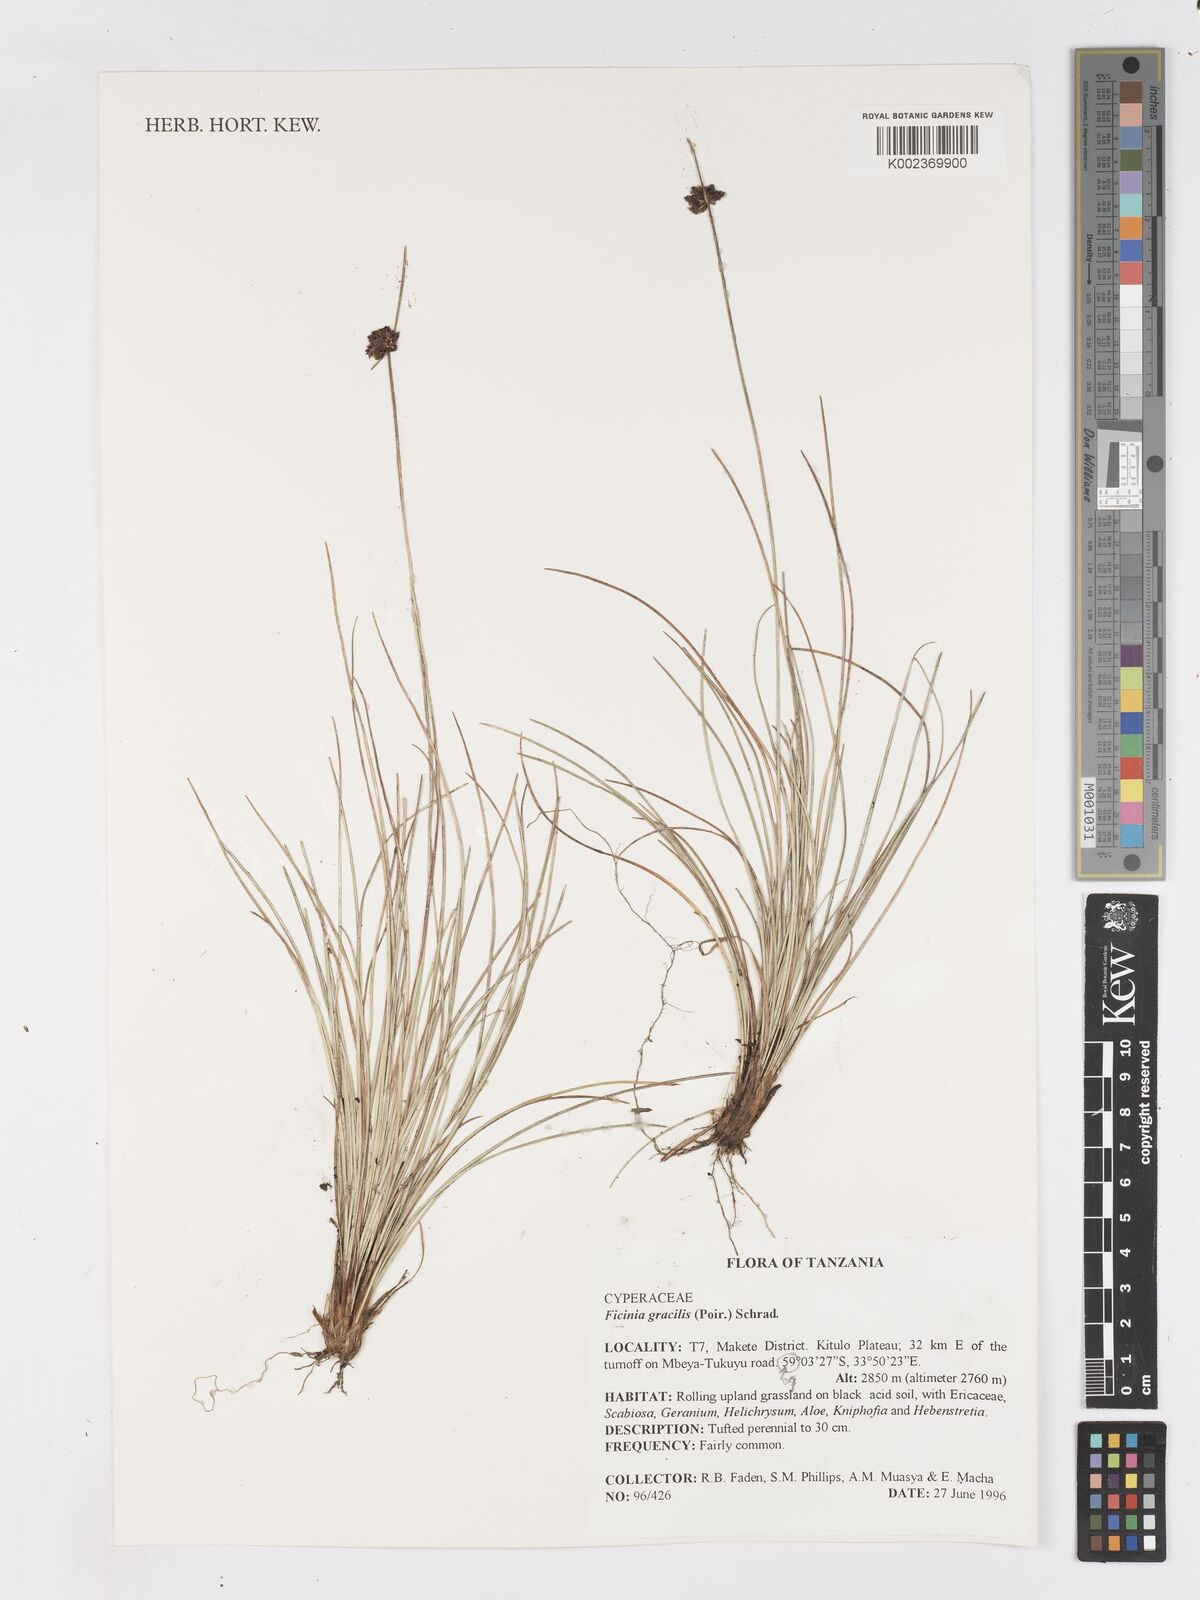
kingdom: Plantae
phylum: Tracheophyta
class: Liliopsida
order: Poales
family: Cyperaceae
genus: Ficinia
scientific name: Ficinia gracilis
